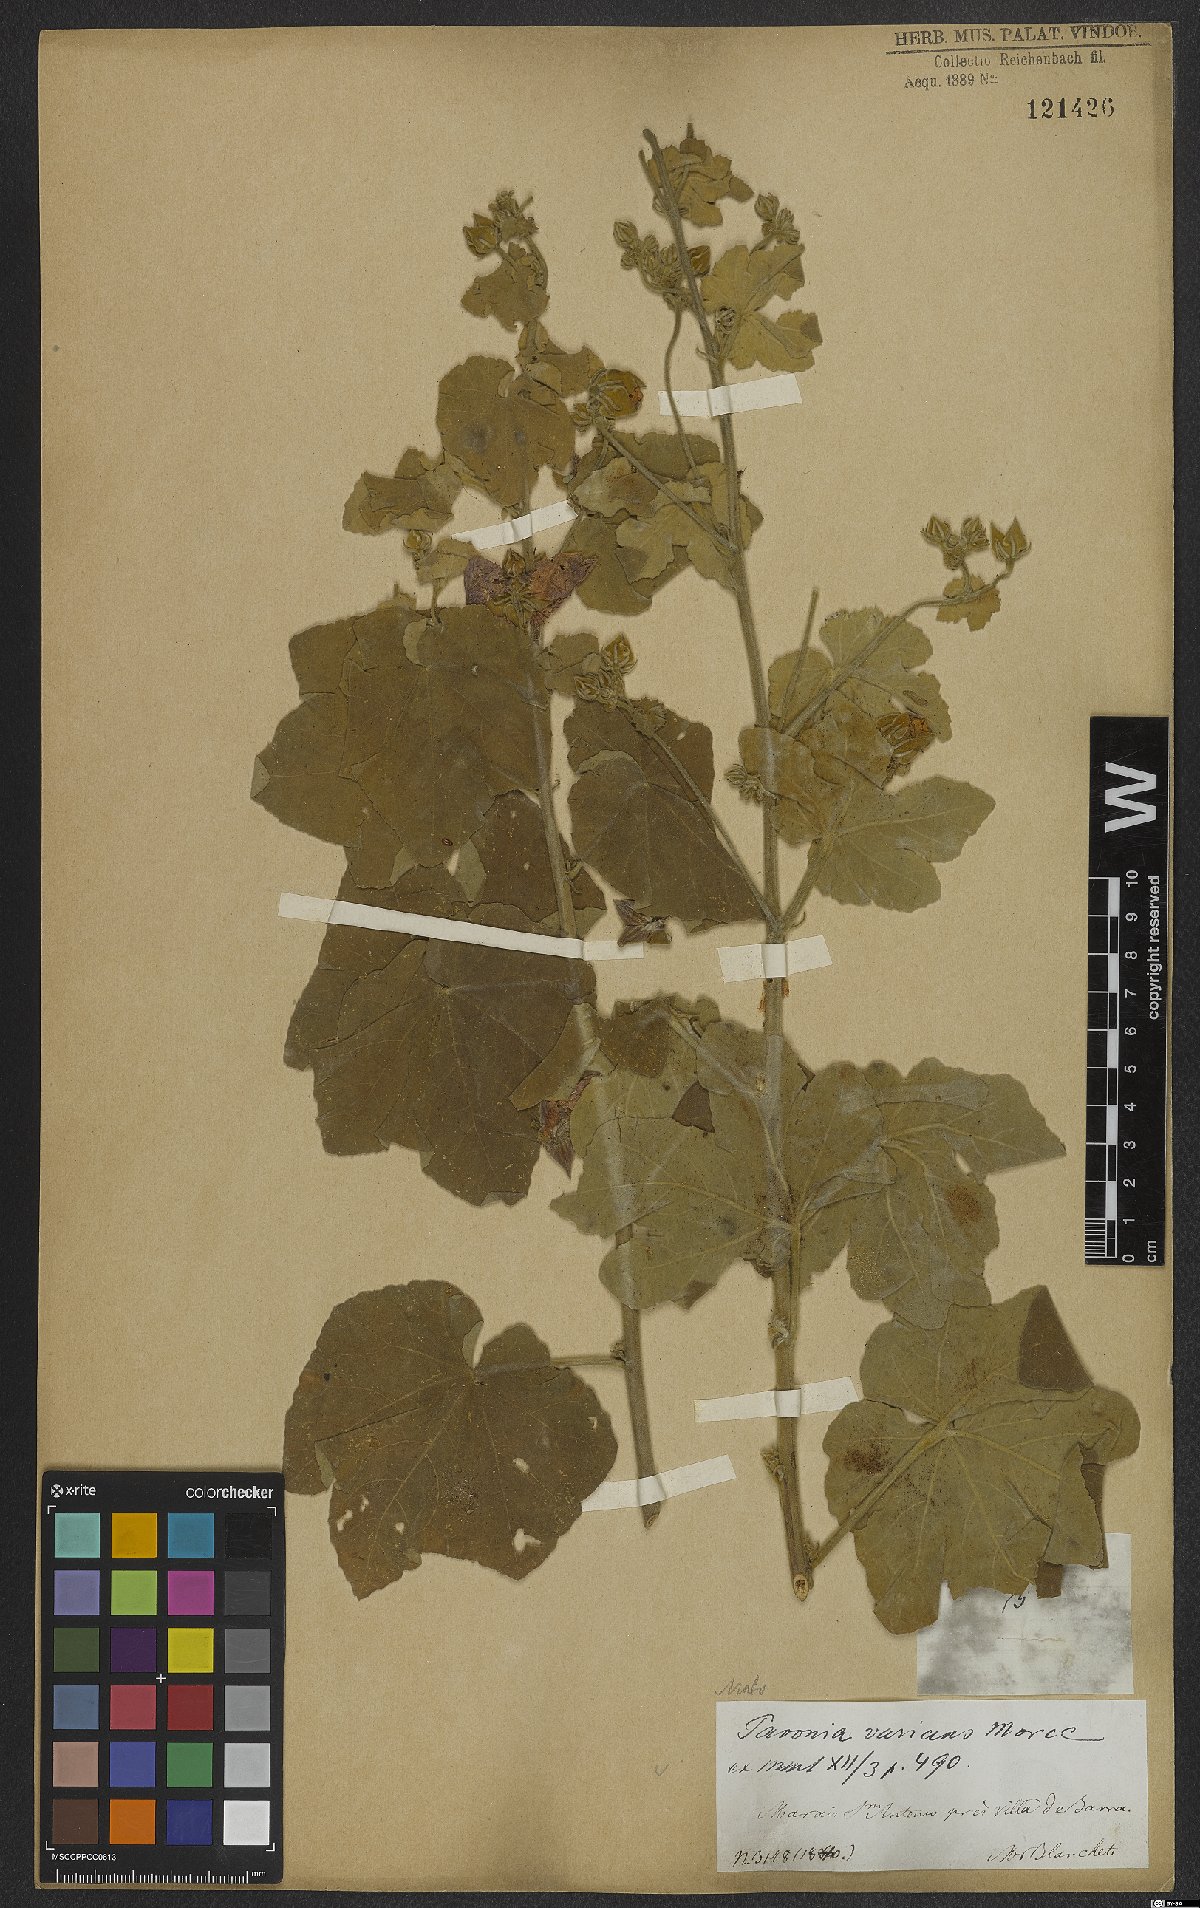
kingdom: Plantae
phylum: Tracheophyta
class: Magnoliopsida
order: Malvales
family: Malvaceae
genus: Pavonia
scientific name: Pavonia varians
